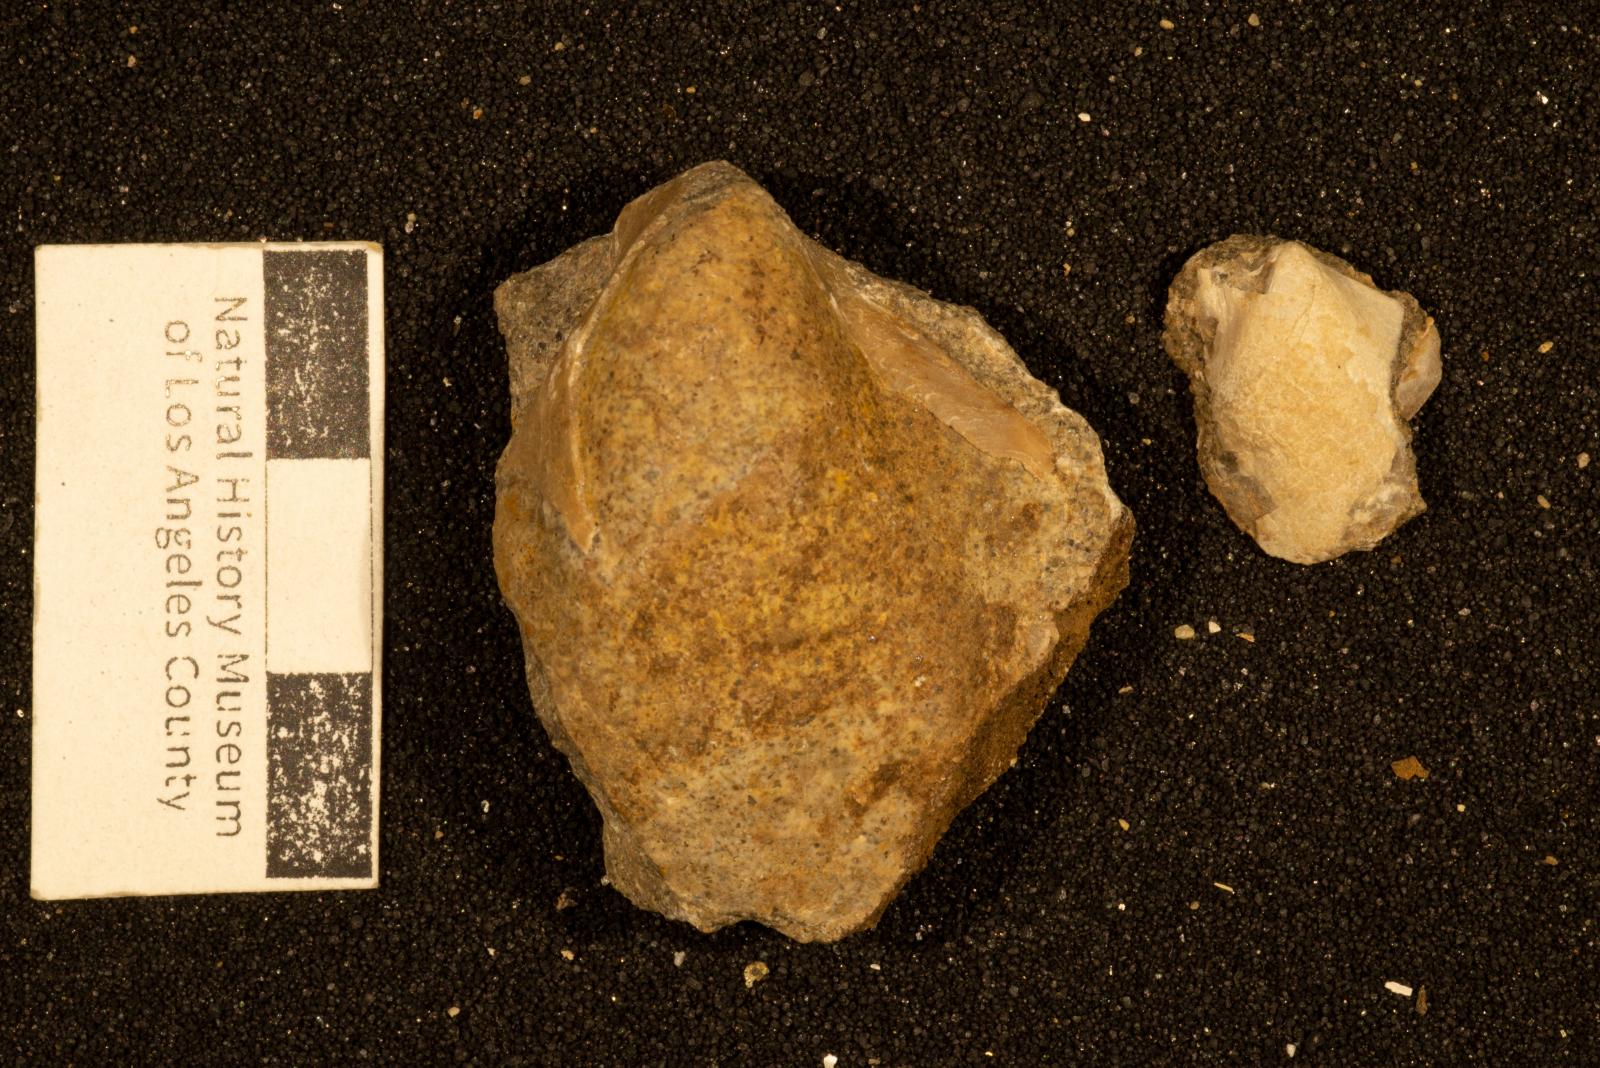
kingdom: Animalia
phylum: Mollusca
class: Bivalvia
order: Ostreida
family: Pteriidae
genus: Pteria
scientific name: Pteria pellucida
